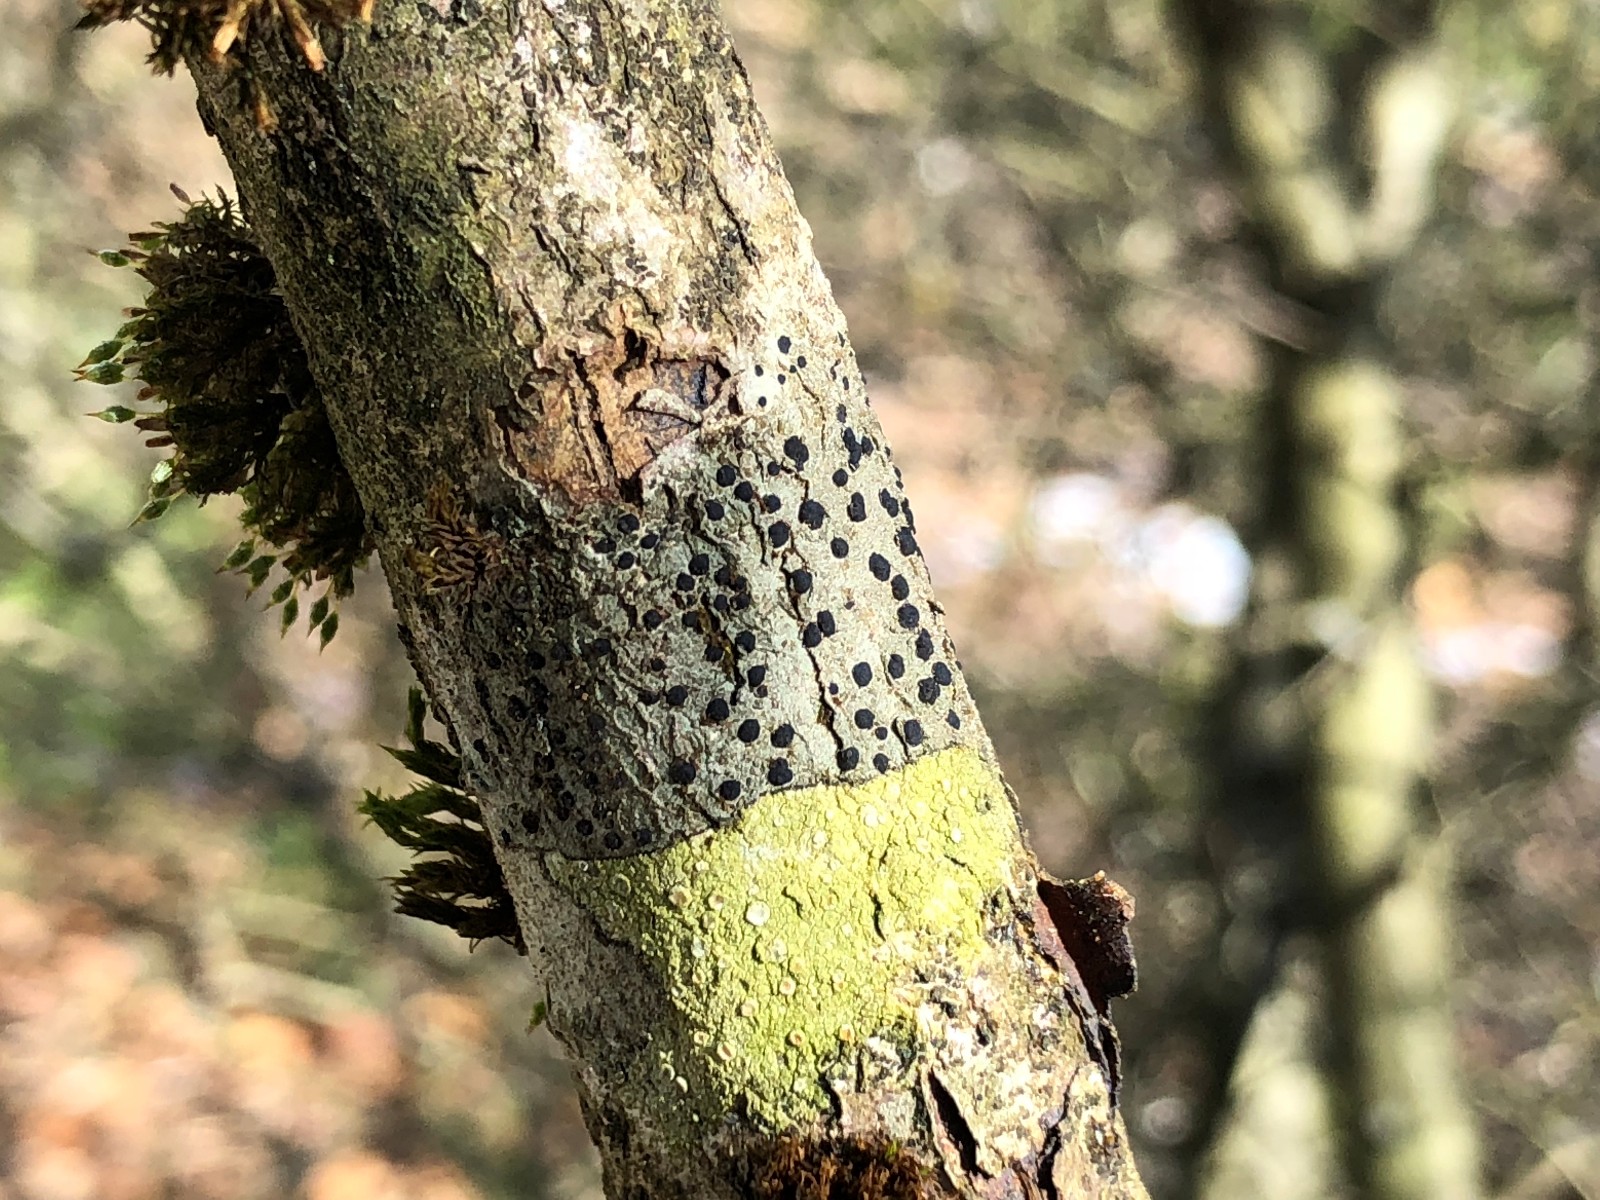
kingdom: Fungi
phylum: Ascomycota
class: Lecanoromycetes
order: Lecanorales
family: Lecanoraceae
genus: Lecidella
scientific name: Lecidella elaeochroma
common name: grågrøn skivelav
